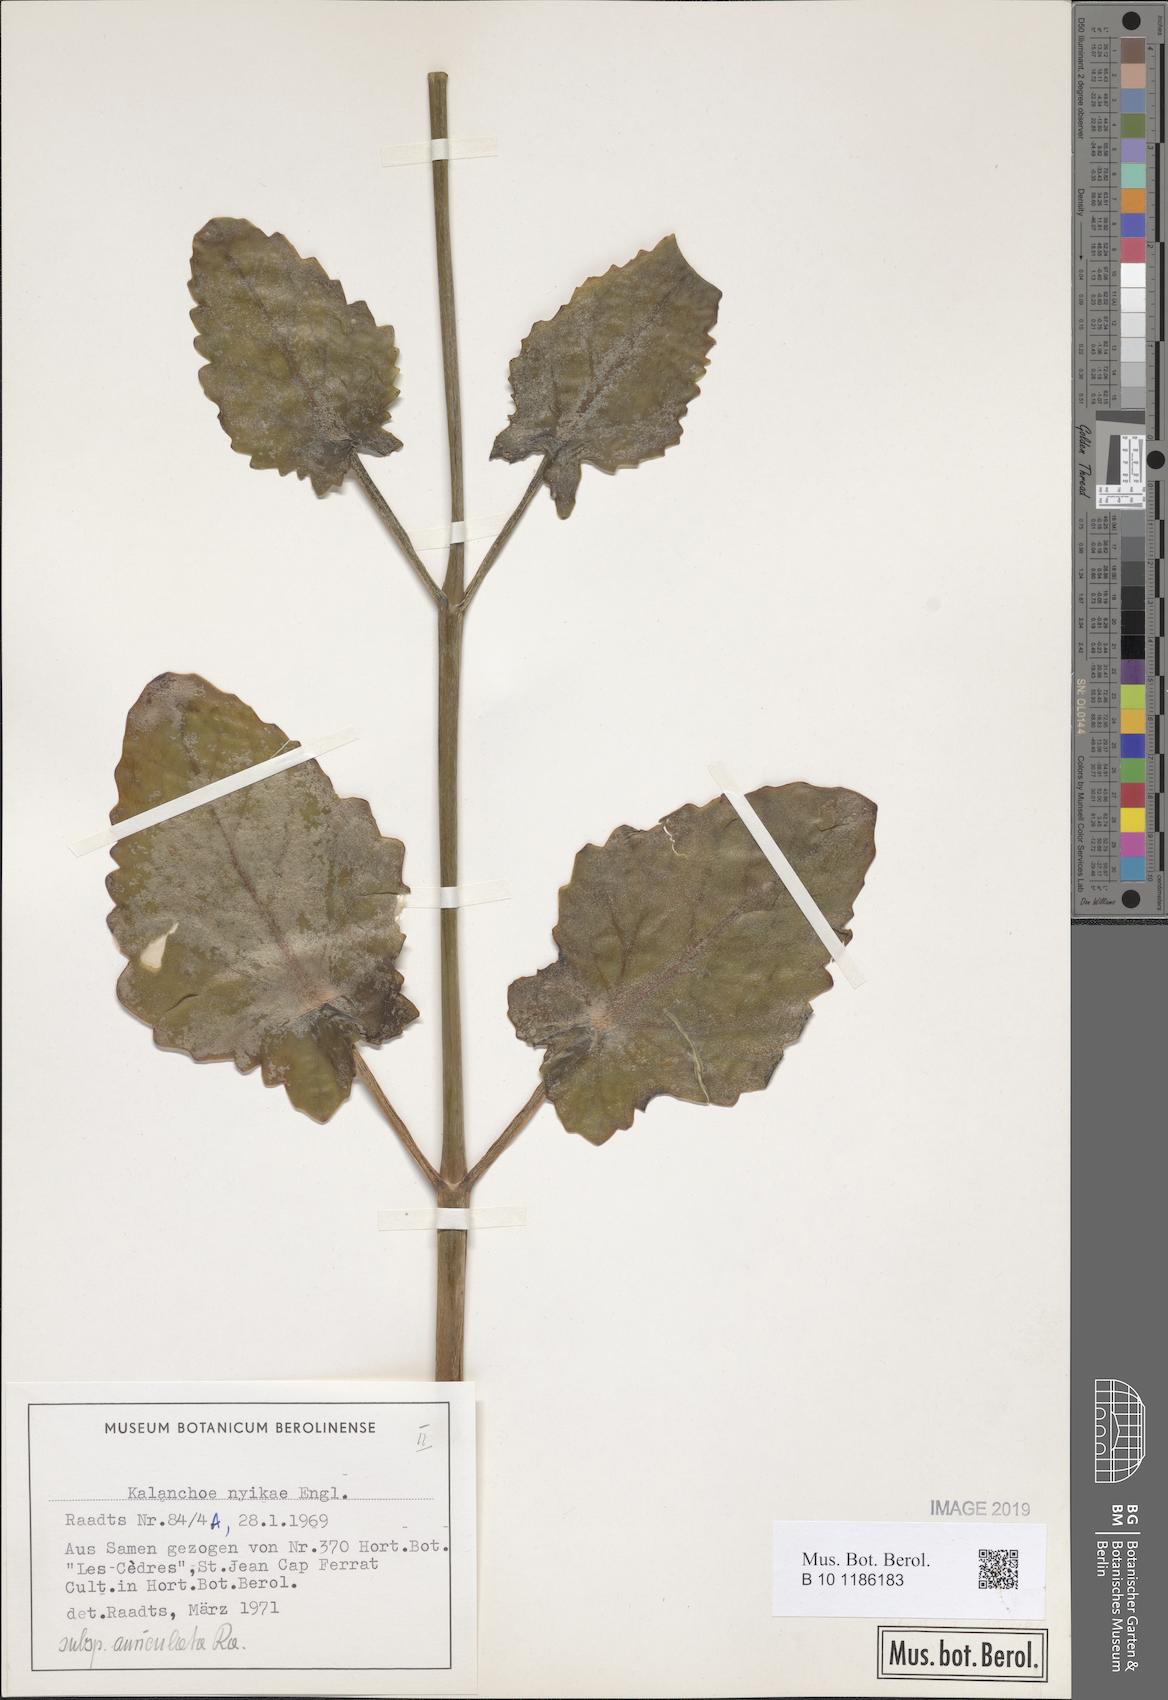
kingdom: Plantae
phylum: Tracheophyta
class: Magnoliopsida
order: Saxifragales
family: Crassulaceae
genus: Kalanchoe
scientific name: Kalanchoe auriculata
